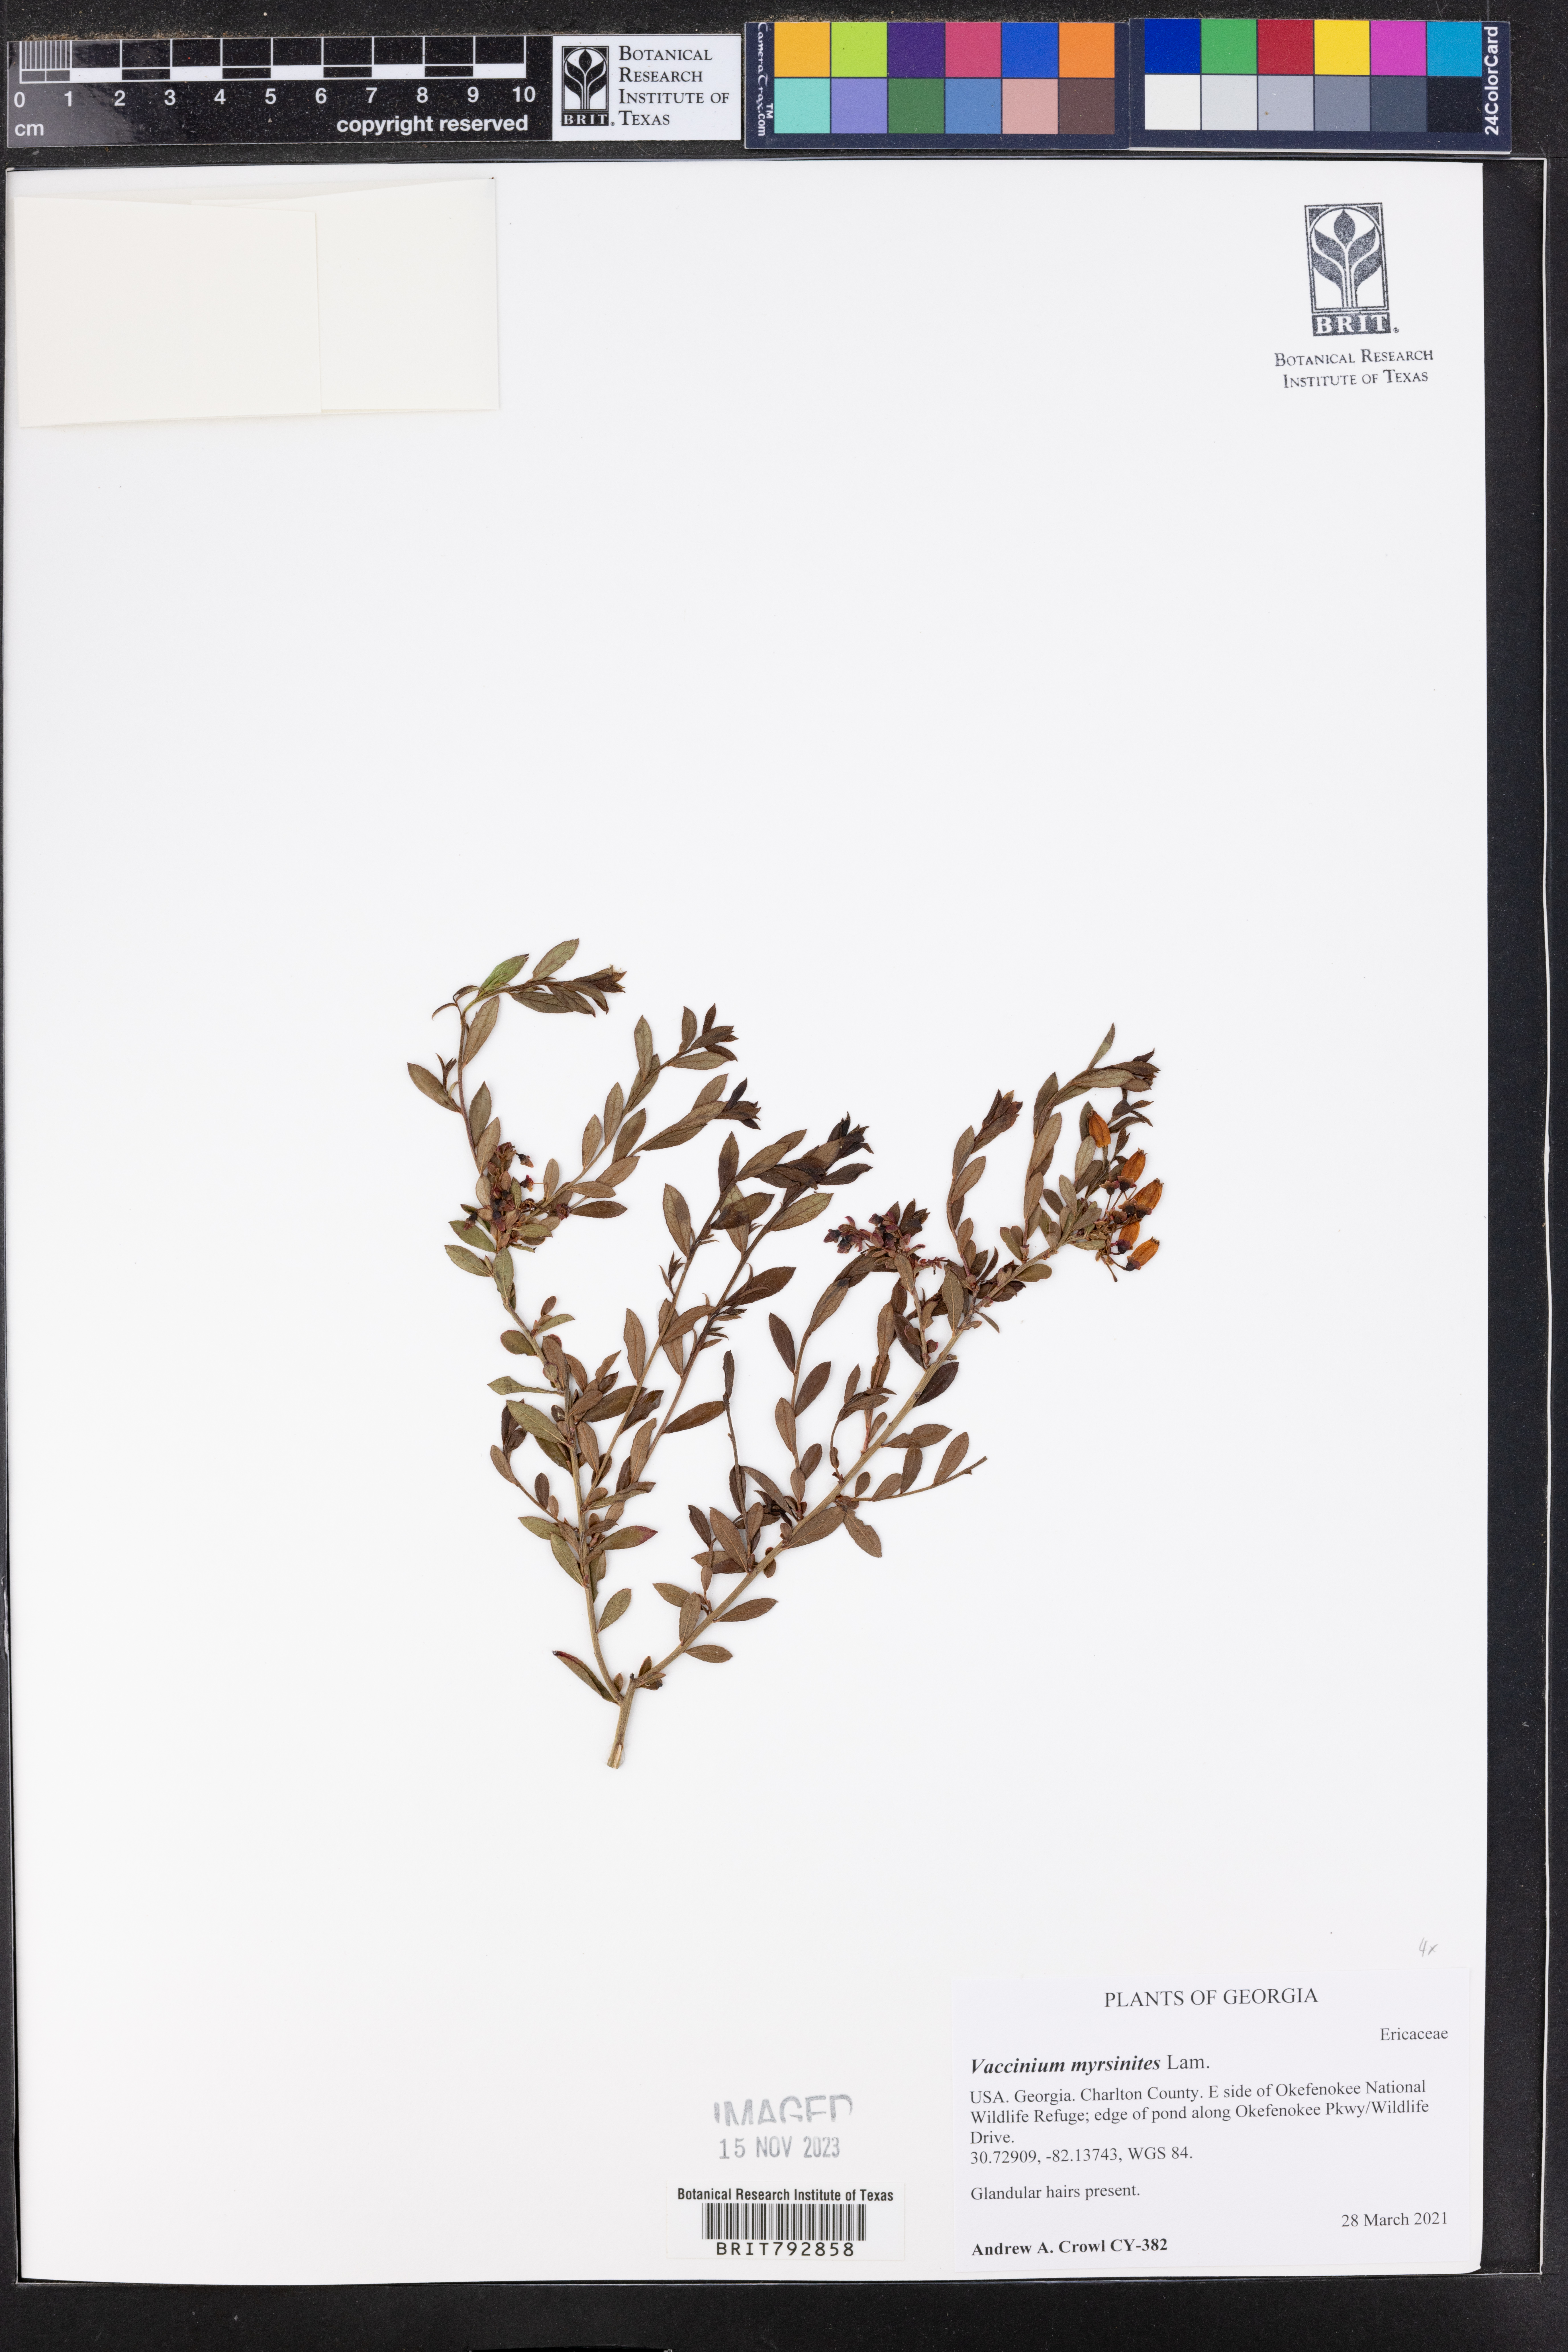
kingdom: Plantae
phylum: Tracheophyta
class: Magnoliopsida
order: Ericales
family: Ericaceae
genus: Vaccinium
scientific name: Vaccinium myrsinites
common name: Evergreen blueberry
